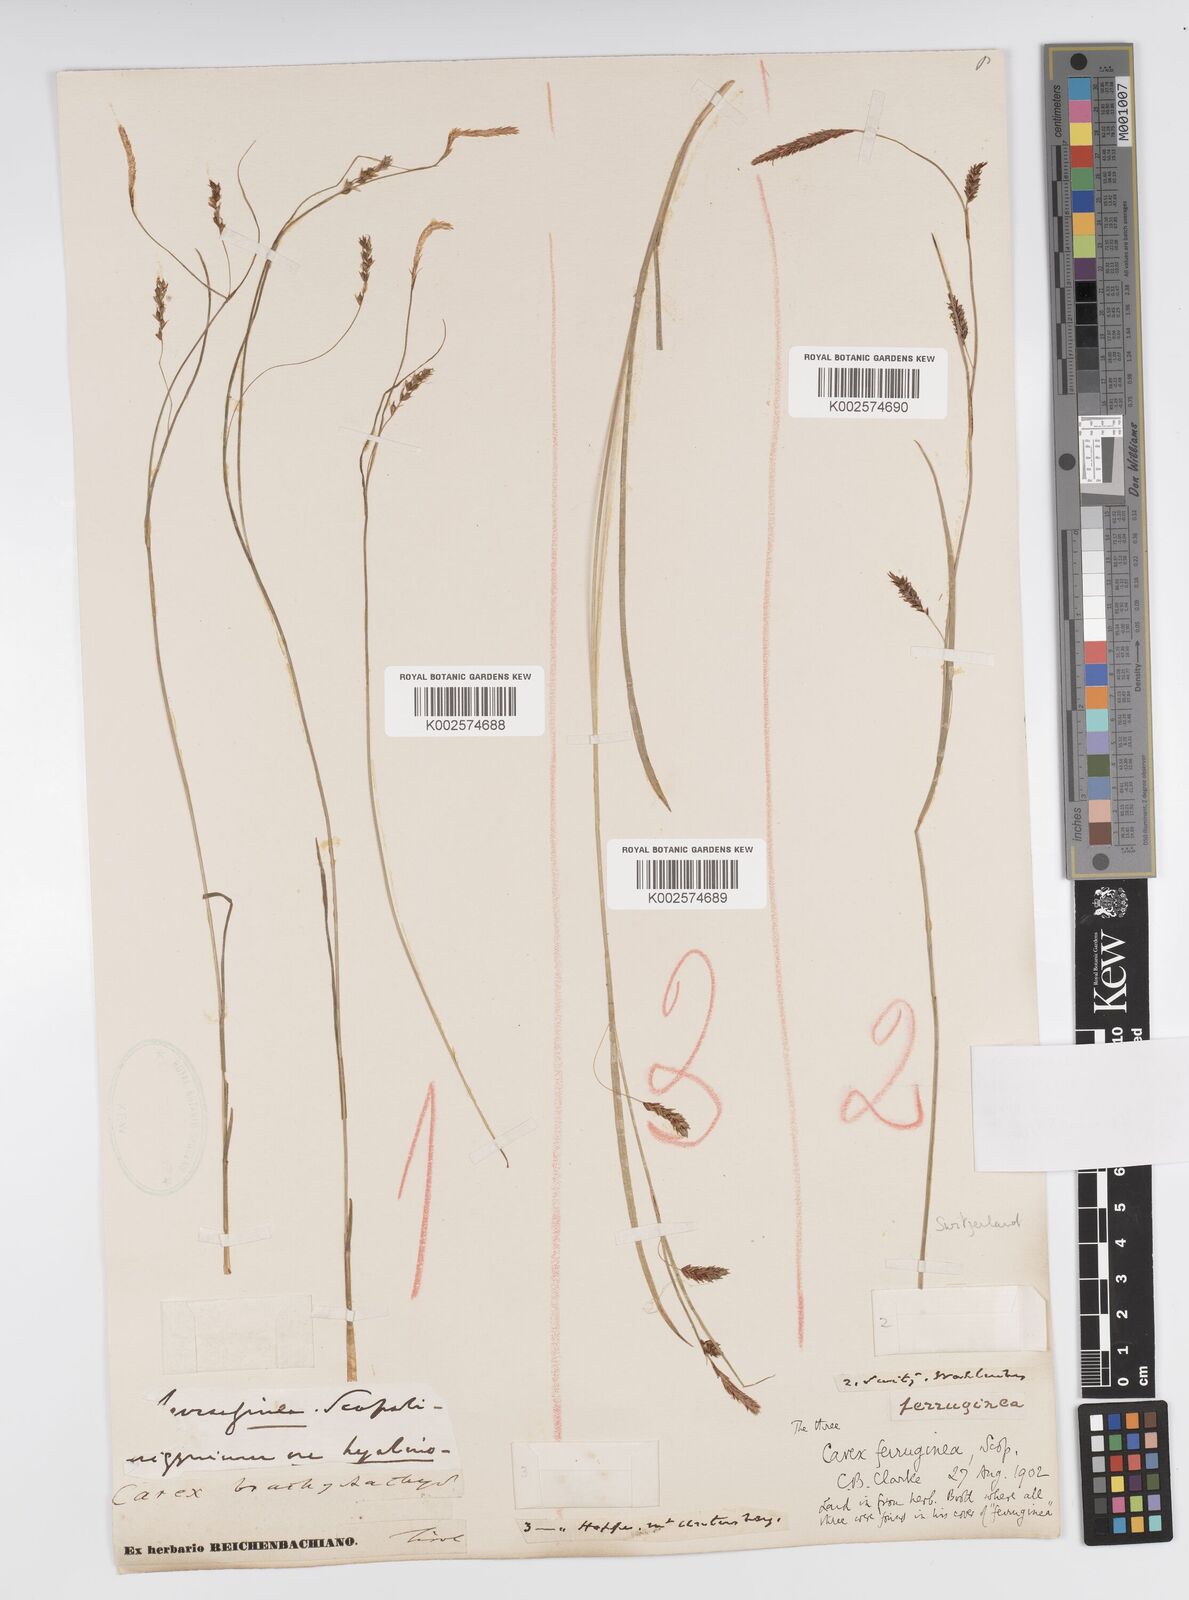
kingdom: Plantae
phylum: Tracheophyta
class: Liliopsida
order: Poales
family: Cyperaceae
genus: Carex
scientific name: Carex ferruginea
